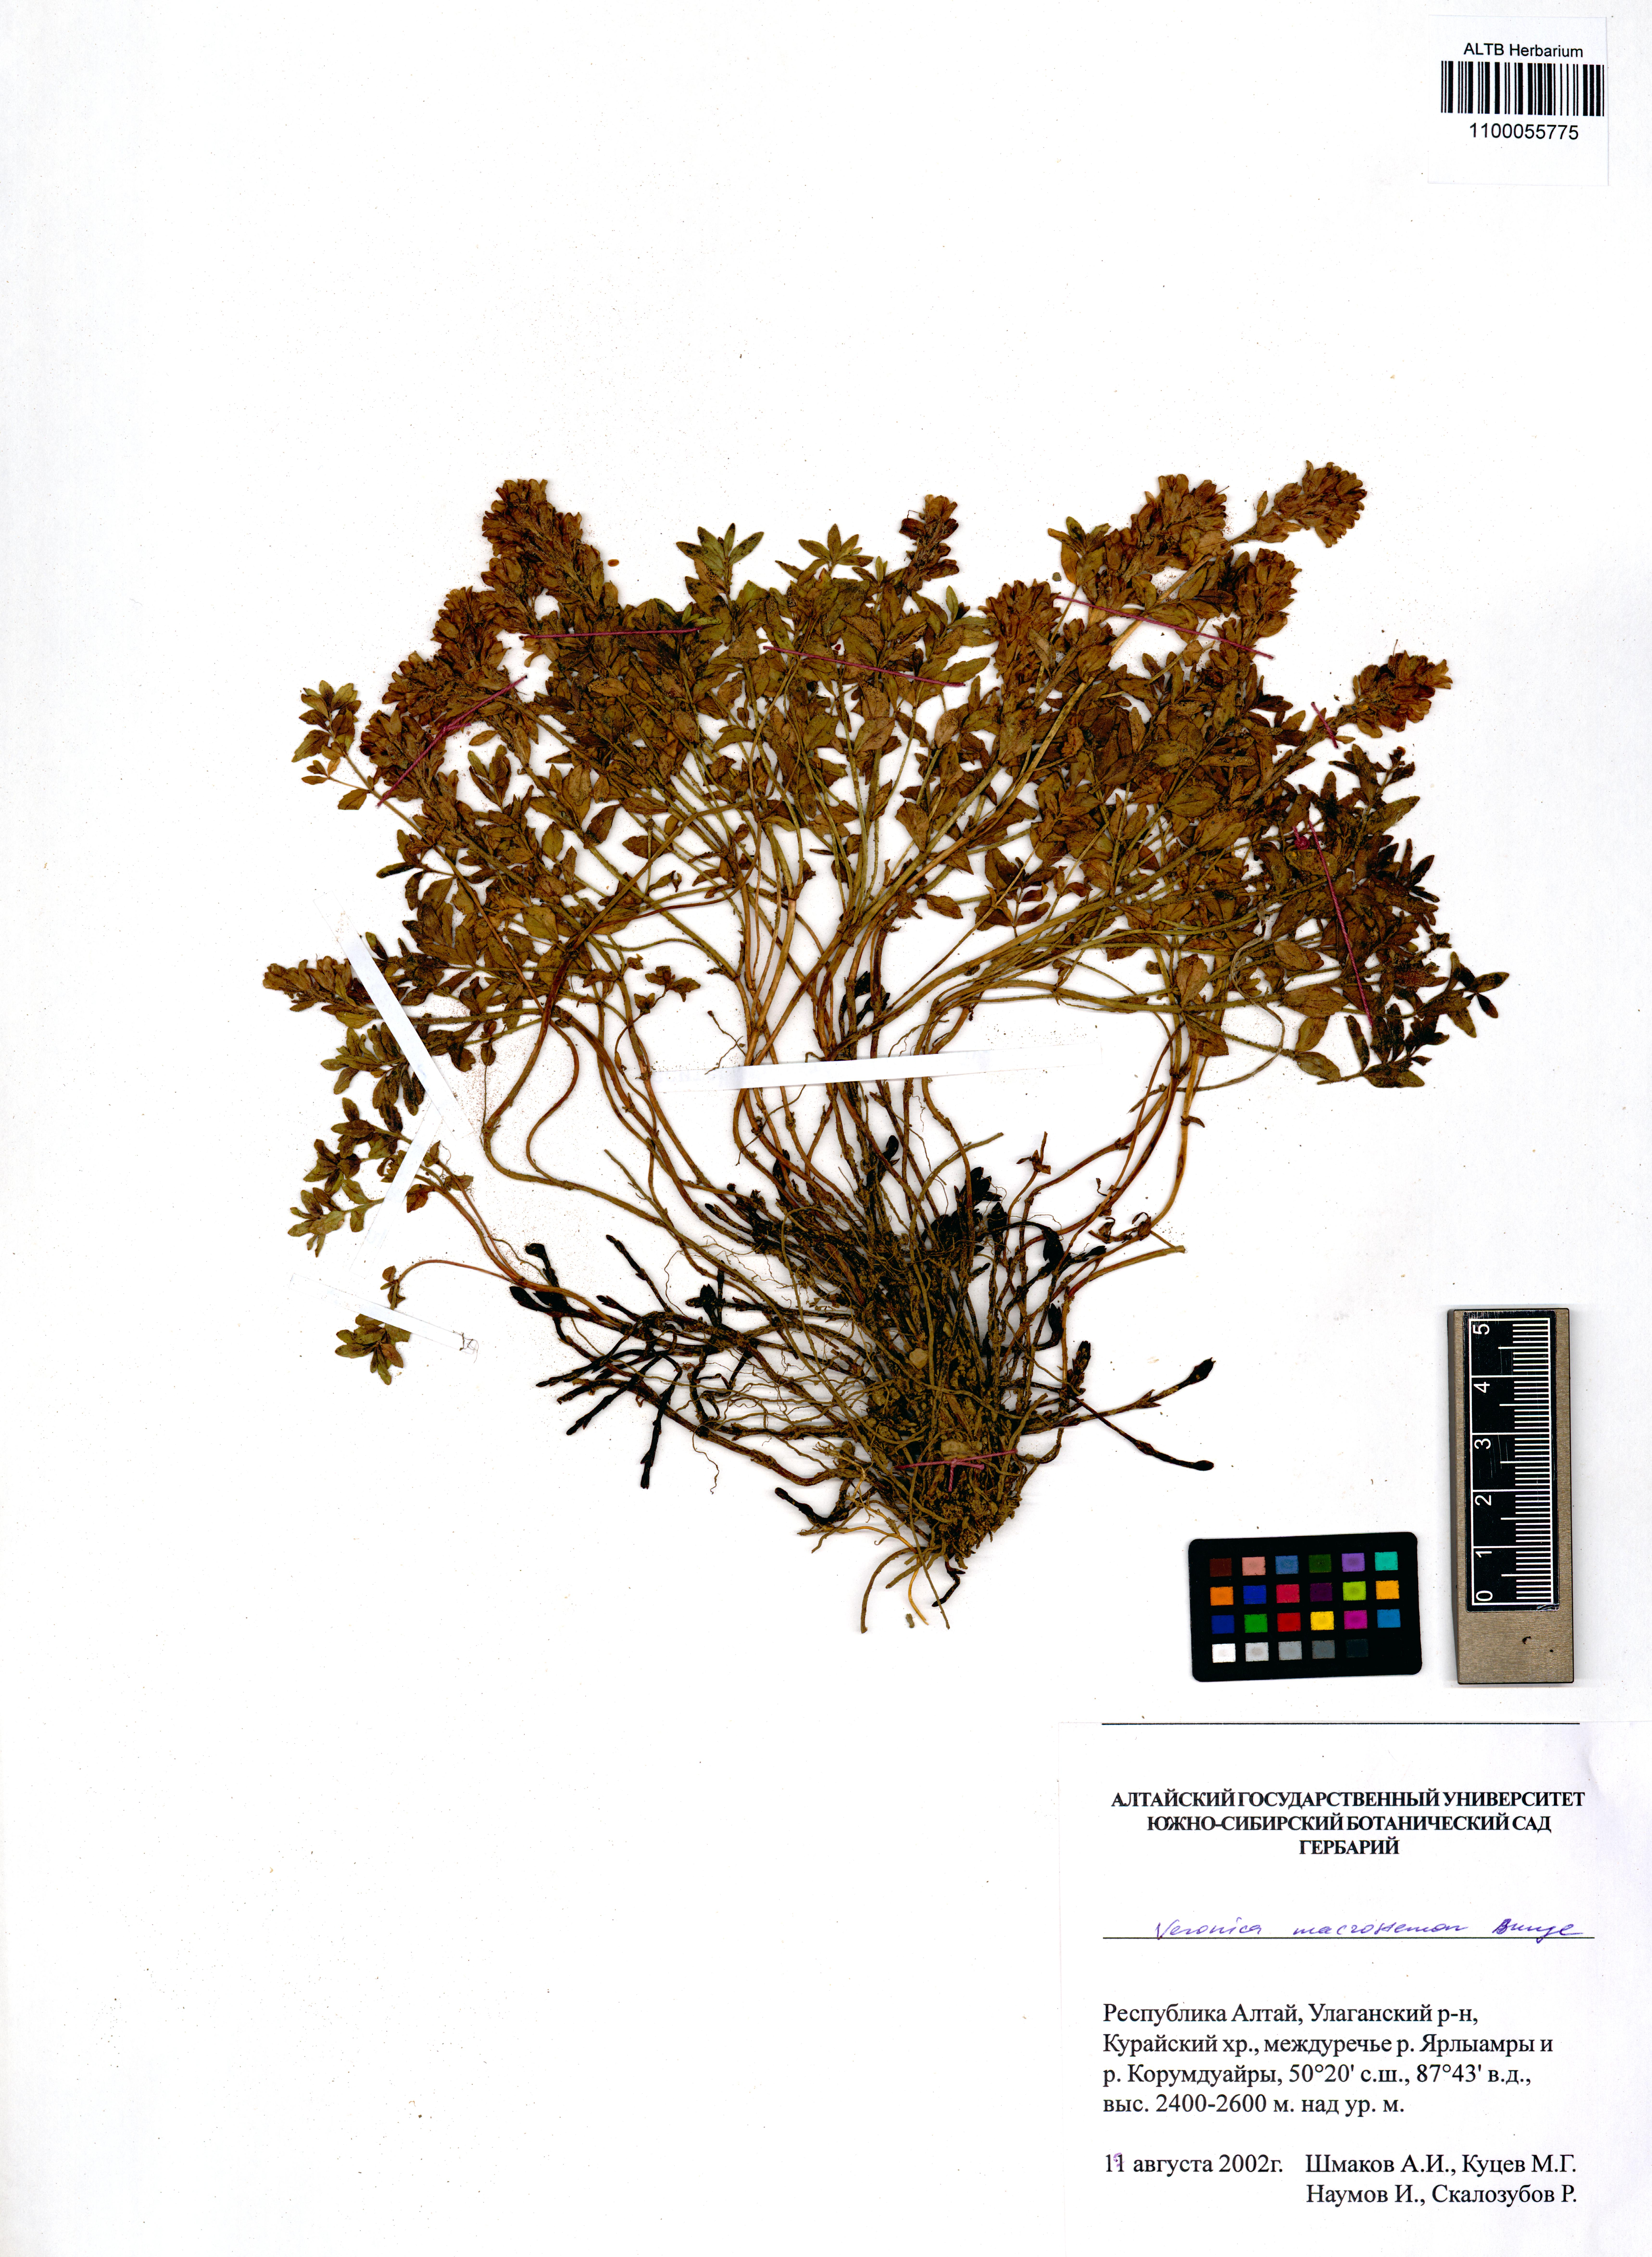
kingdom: Plantae
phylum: Tracheophyta
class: Magnoliopsida
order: Lamiales
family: Plantaginaceae
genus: Veronica
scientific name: Veronica macrostemon
